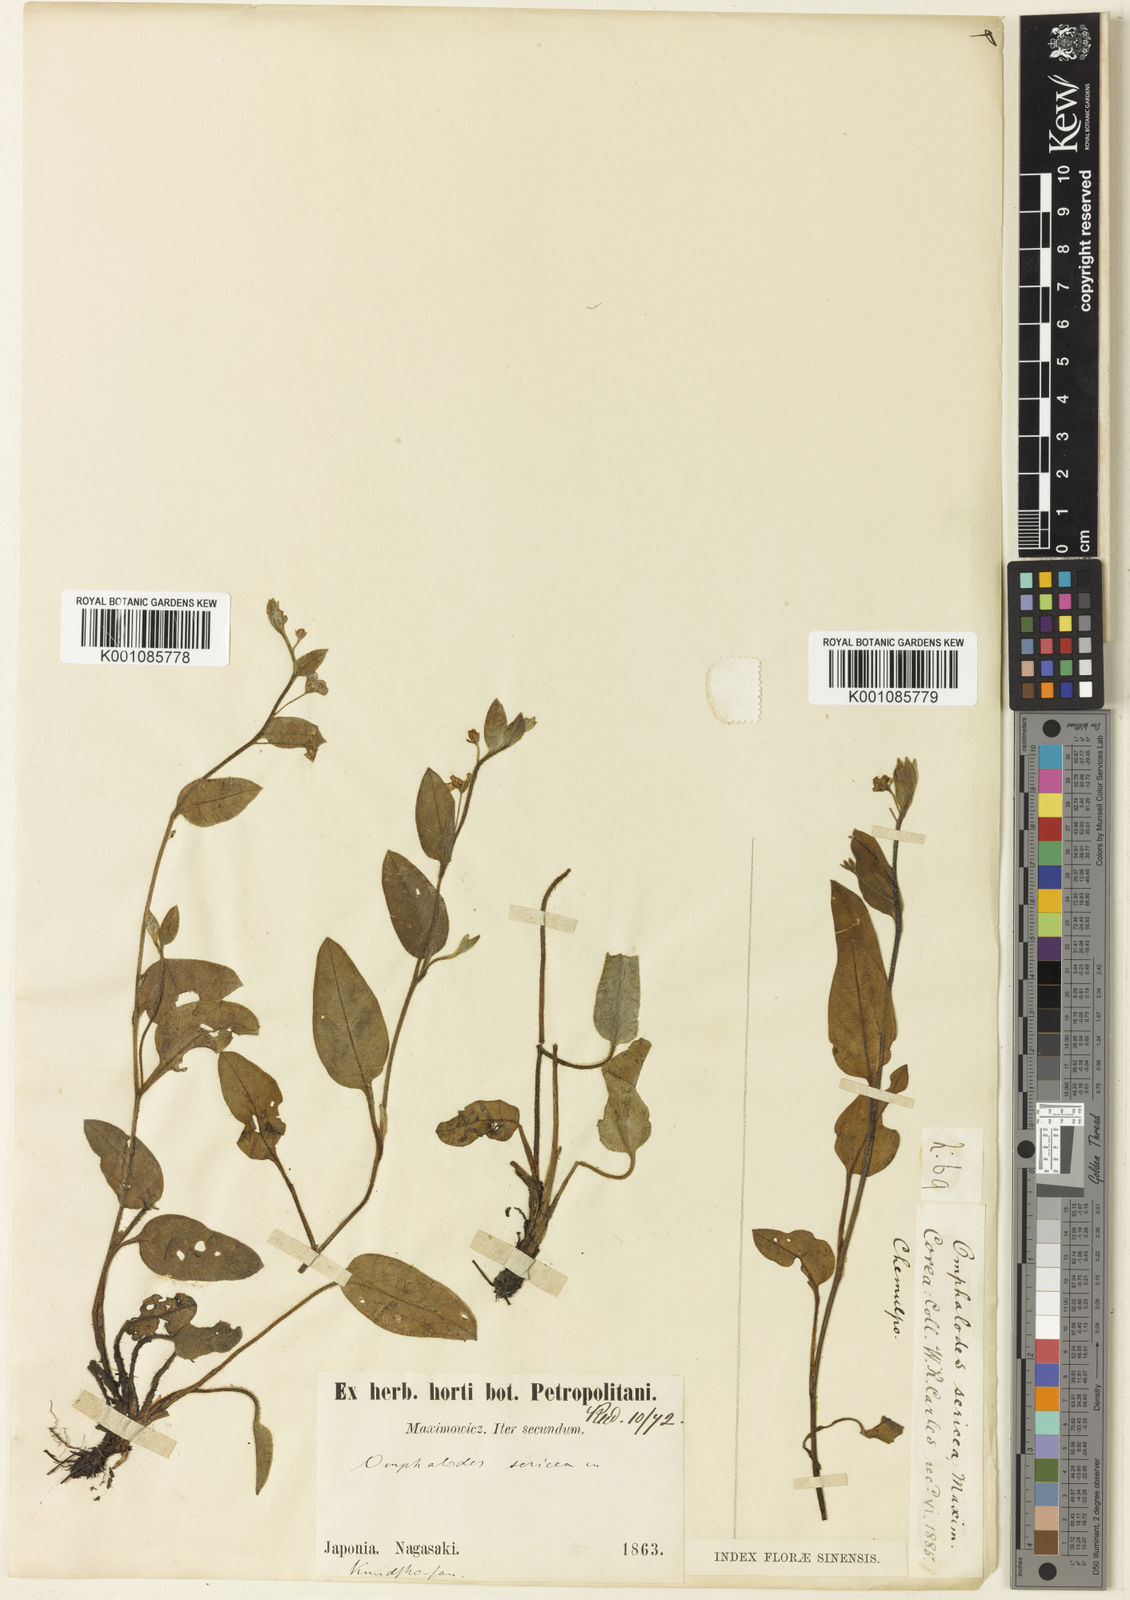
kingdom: Plantae
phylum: Tracheophyta
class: Magnoliopsida
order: Boraginales
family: Boraginaceae
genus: Trigonotis
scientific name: Trigonotis
